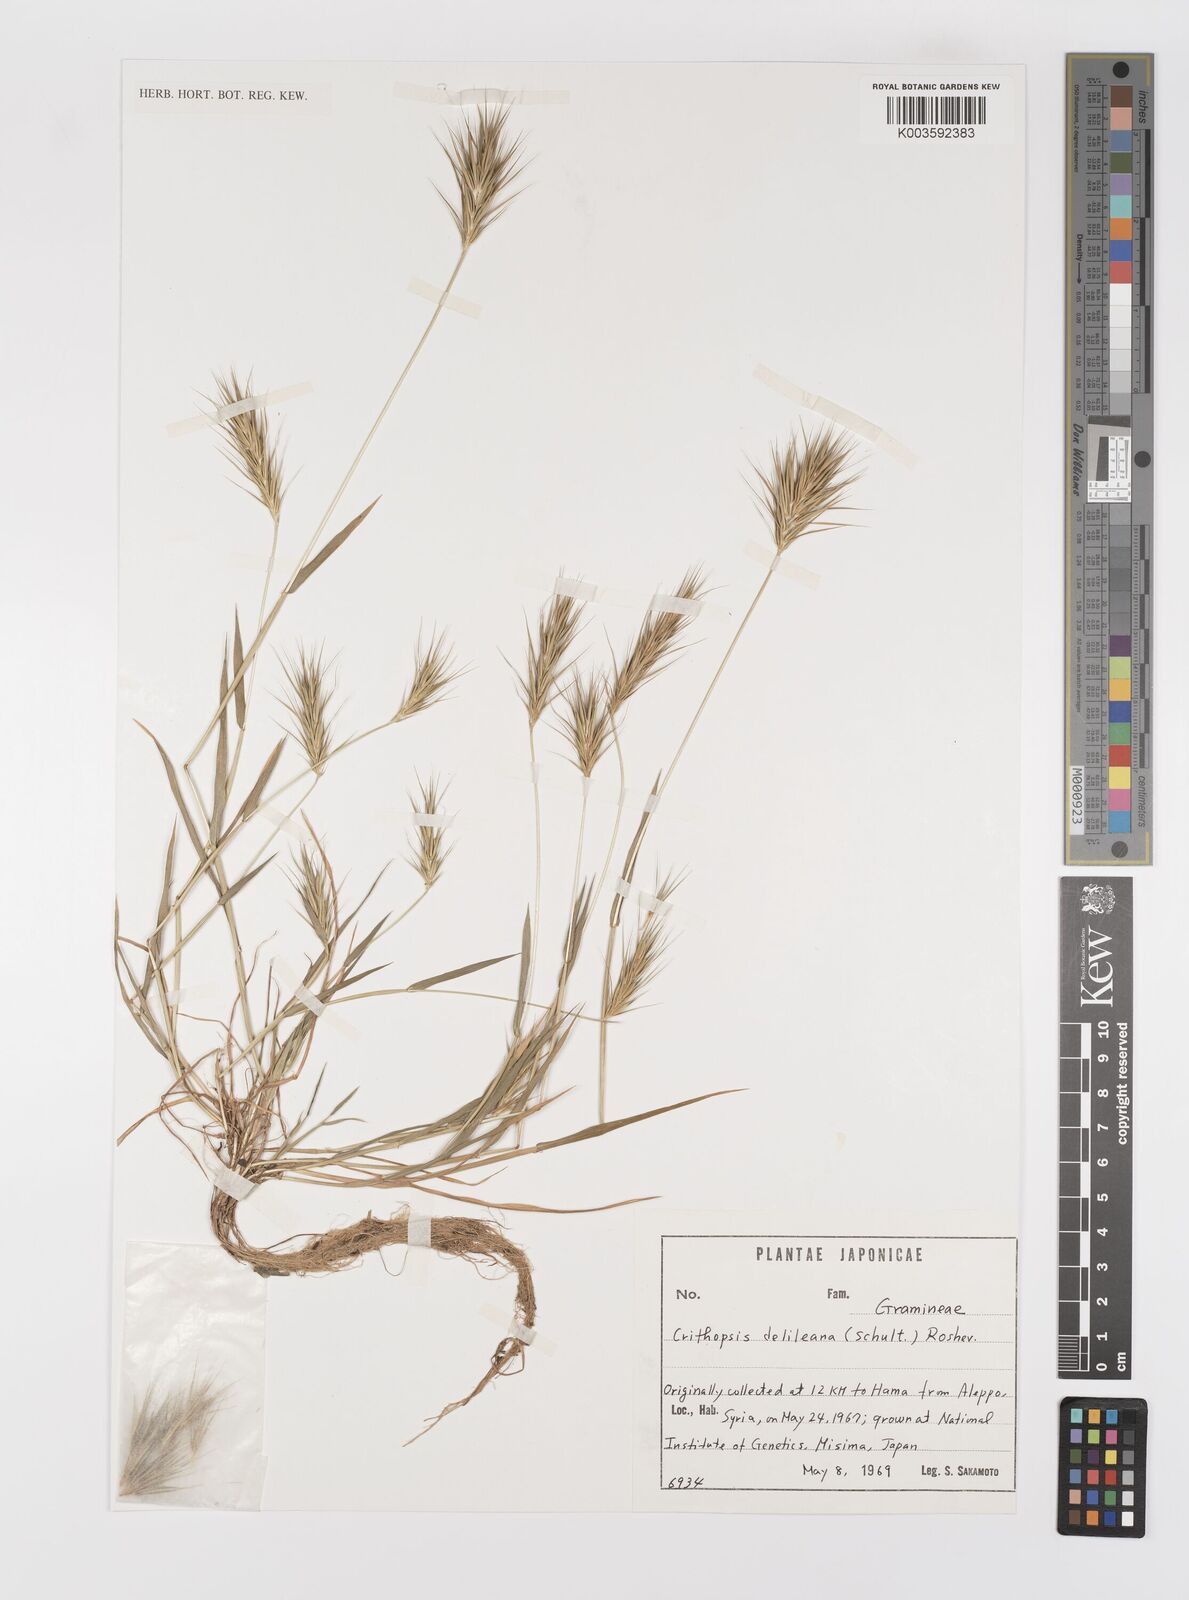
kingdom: Plantae
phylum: Tracheophyta
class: Liliopsida
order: Poales
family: Poaceae
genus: Crithopsis
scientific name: Crithopsis delileana
